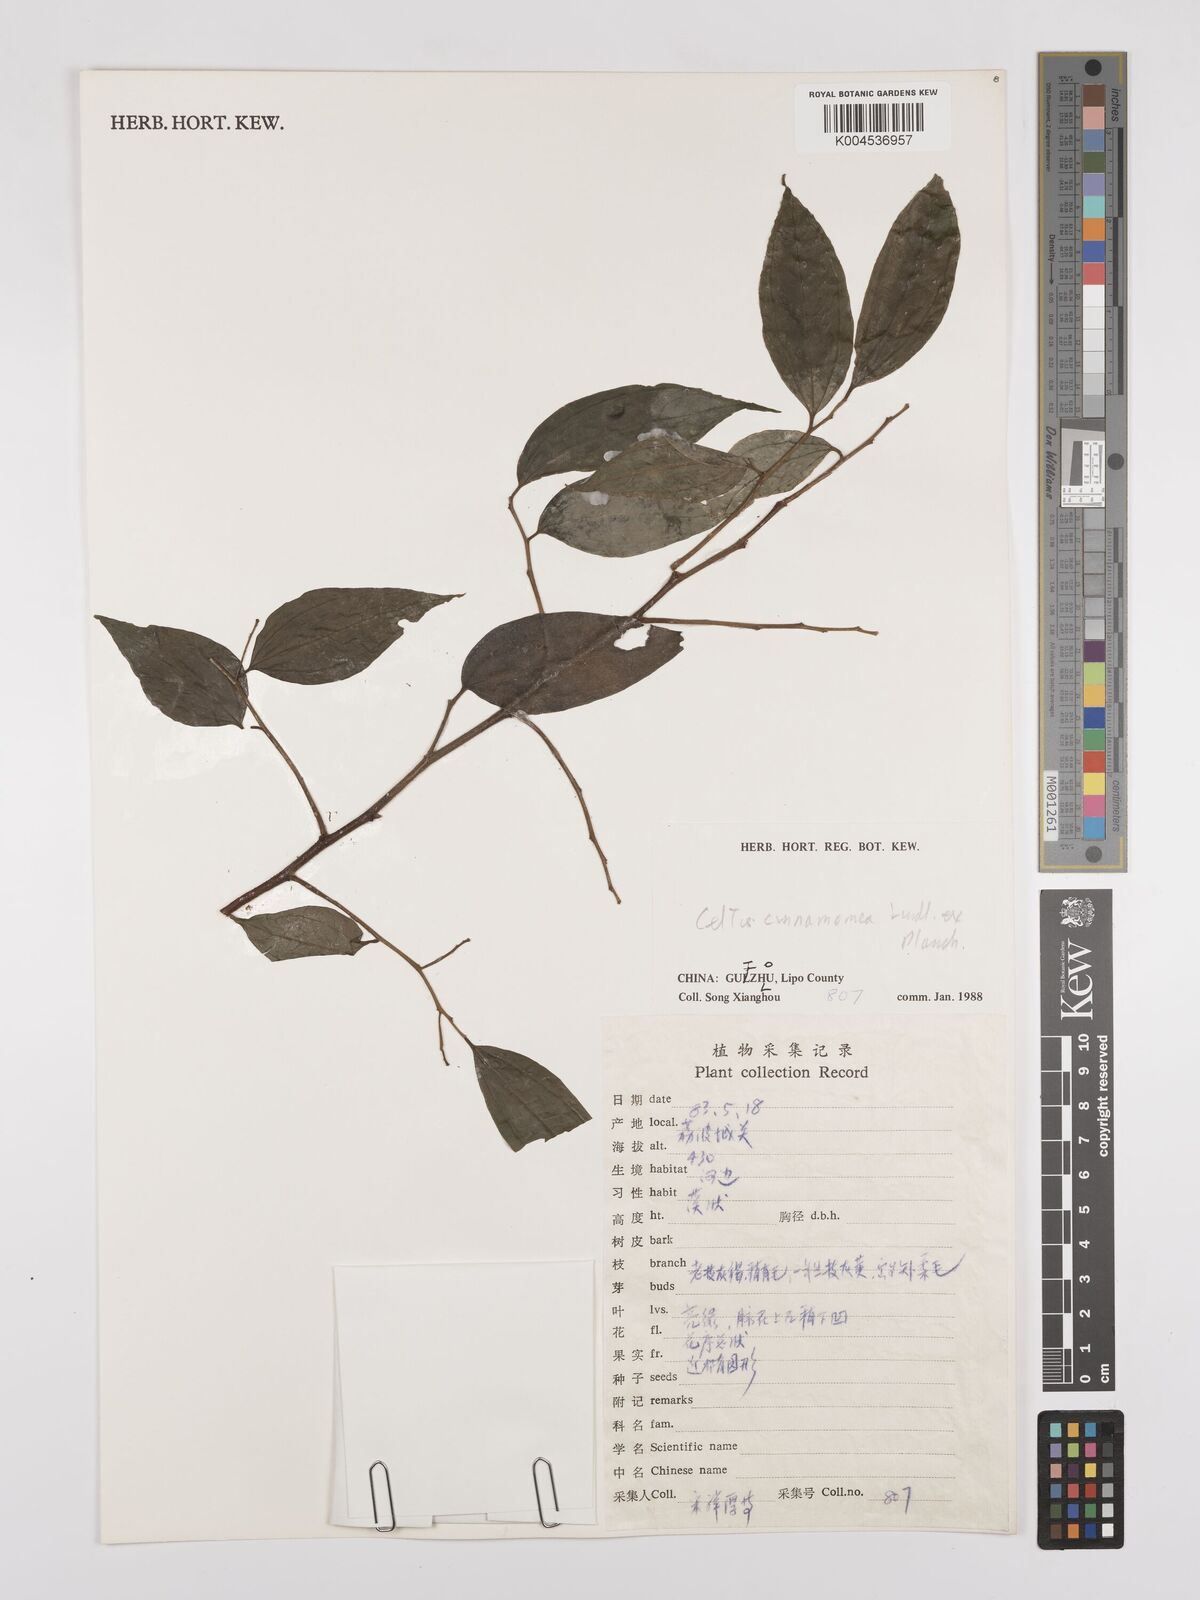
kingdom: Plantae
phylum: Tracheophyta
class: Magnoliopsida
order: Rosales
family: Cannabaceae
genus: Celtis
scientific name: Celtis timorensis
